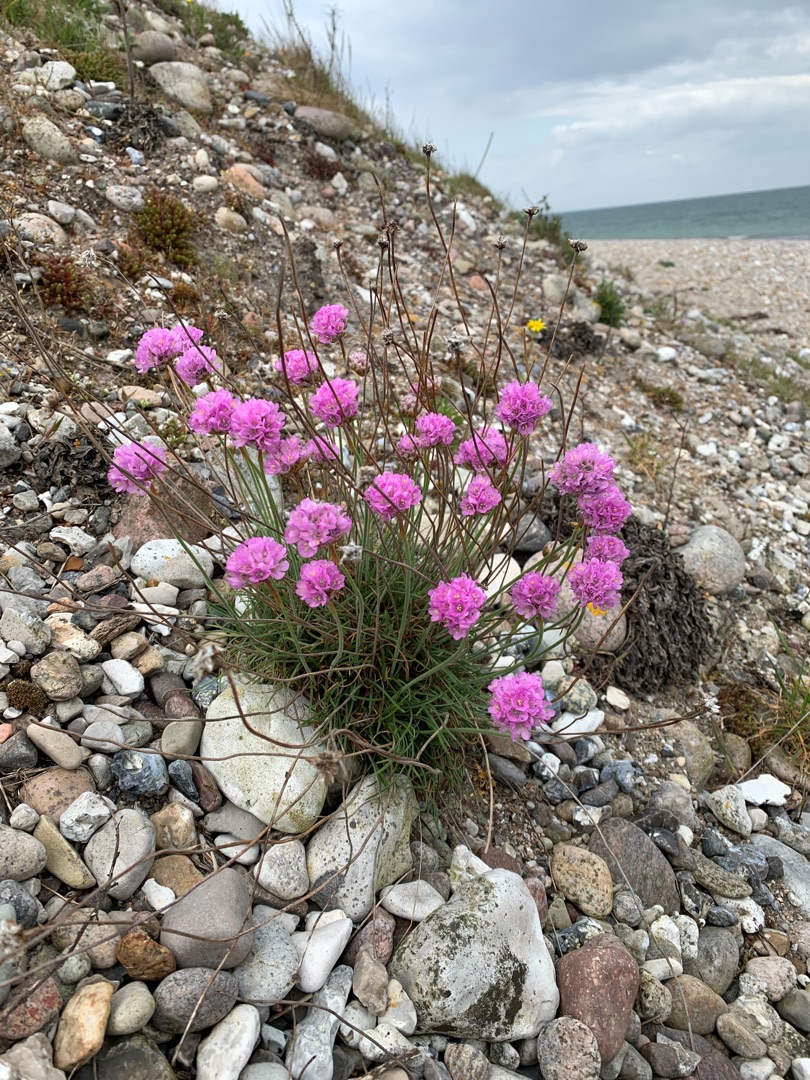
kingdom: Plantae
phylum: Tracheophyta
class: Magnoliopsida
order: Caryophyllales
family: Plumbaginaceae
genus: Armeria
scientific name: Armeria maritima
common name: Engelskgræs
